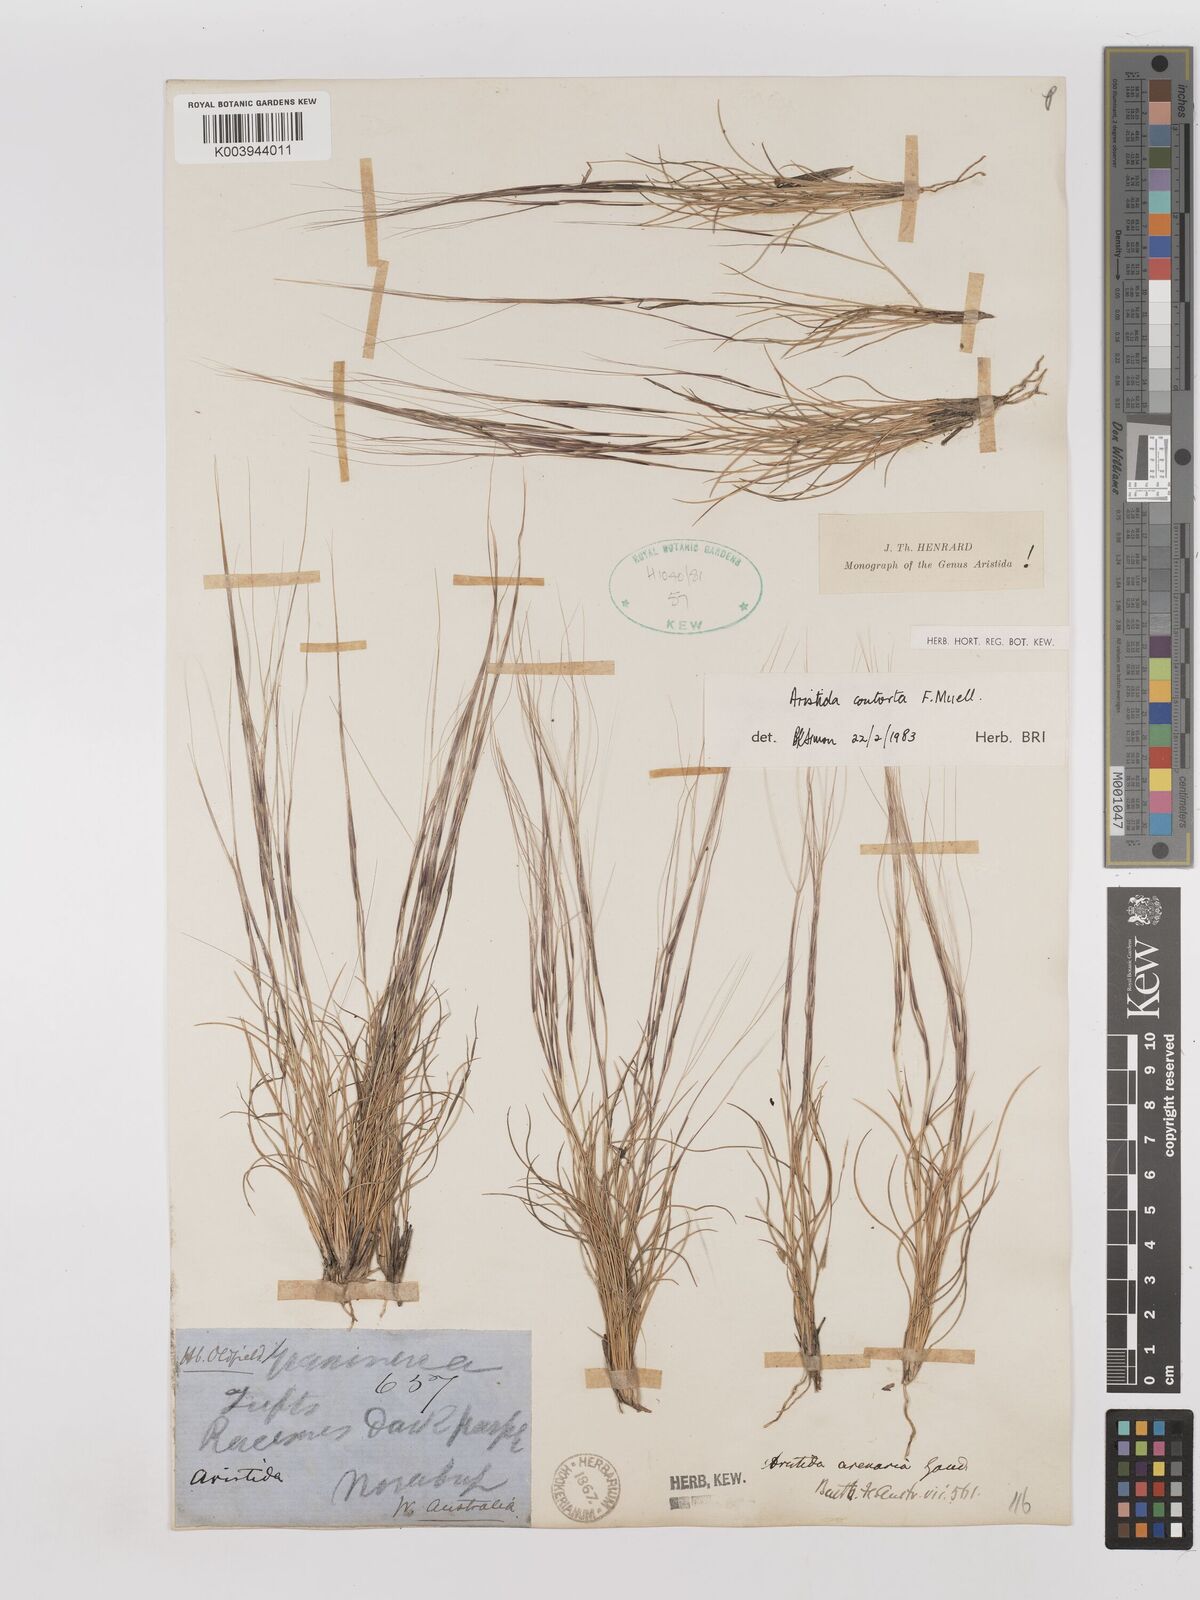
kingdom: Plantae
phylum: Tracheophyta
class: Liliopsida
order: Poales
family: Poaceae
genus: Aristida
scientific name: Aristida contorta
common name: Bunch kerosene grass
